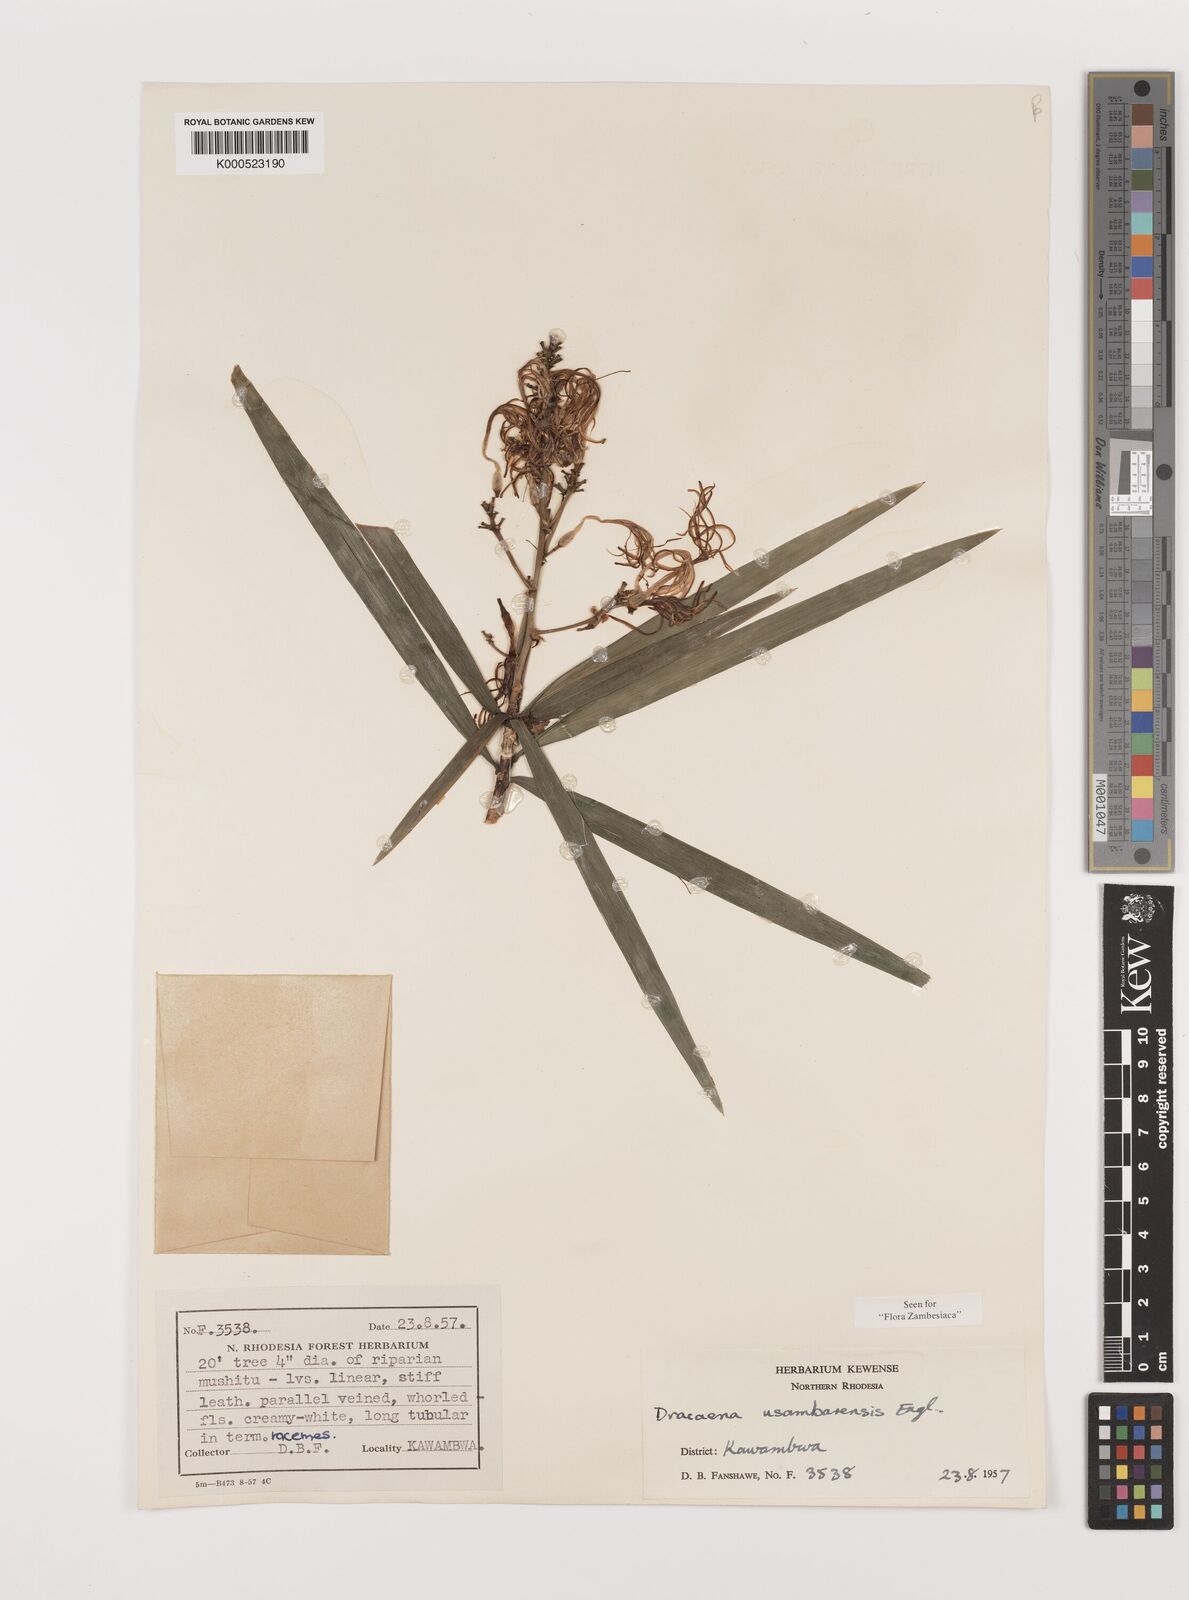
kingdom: Plantae
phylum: Tracheophyta
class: Liliopsida
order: Asparagales
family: Asparagaceae
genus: Dracaena
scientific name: Dracaena usambarensis
